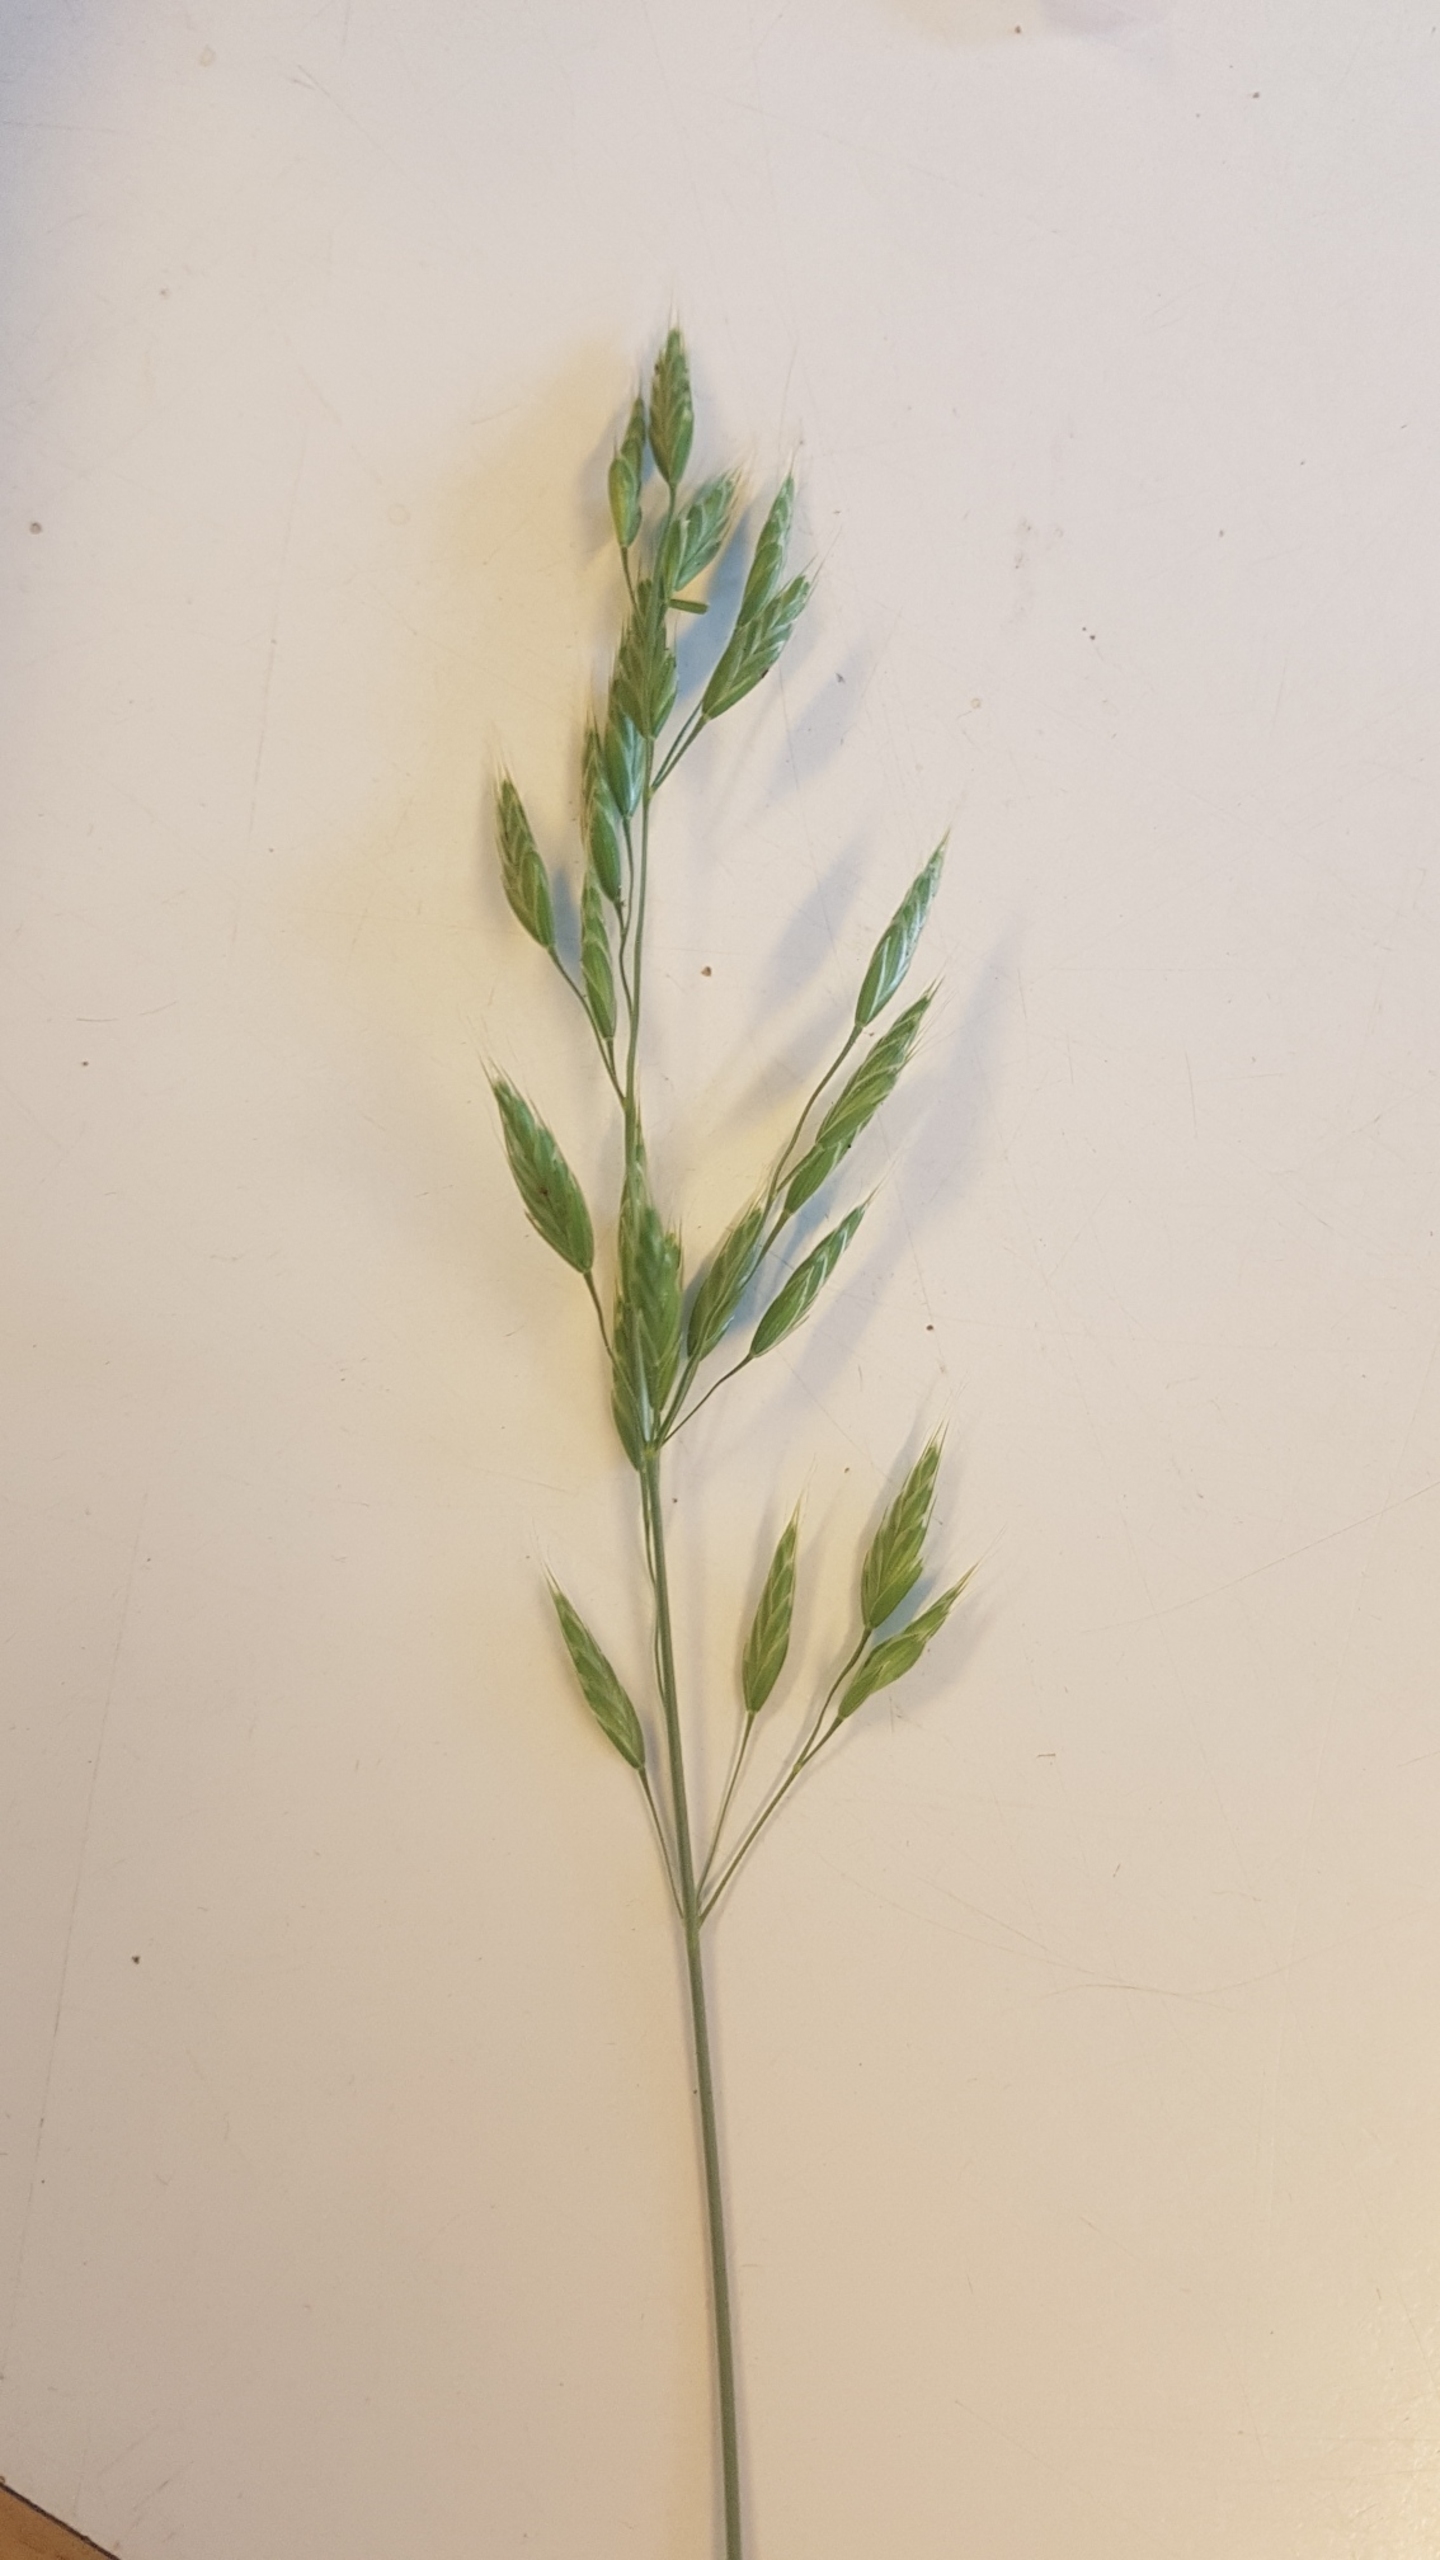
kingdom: Plantae
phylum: Tracheophyta
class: Liliopsida
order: Poales
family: Poaceae
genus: Bromus
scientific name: Bromus hordeaceus
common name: Blød hejre
